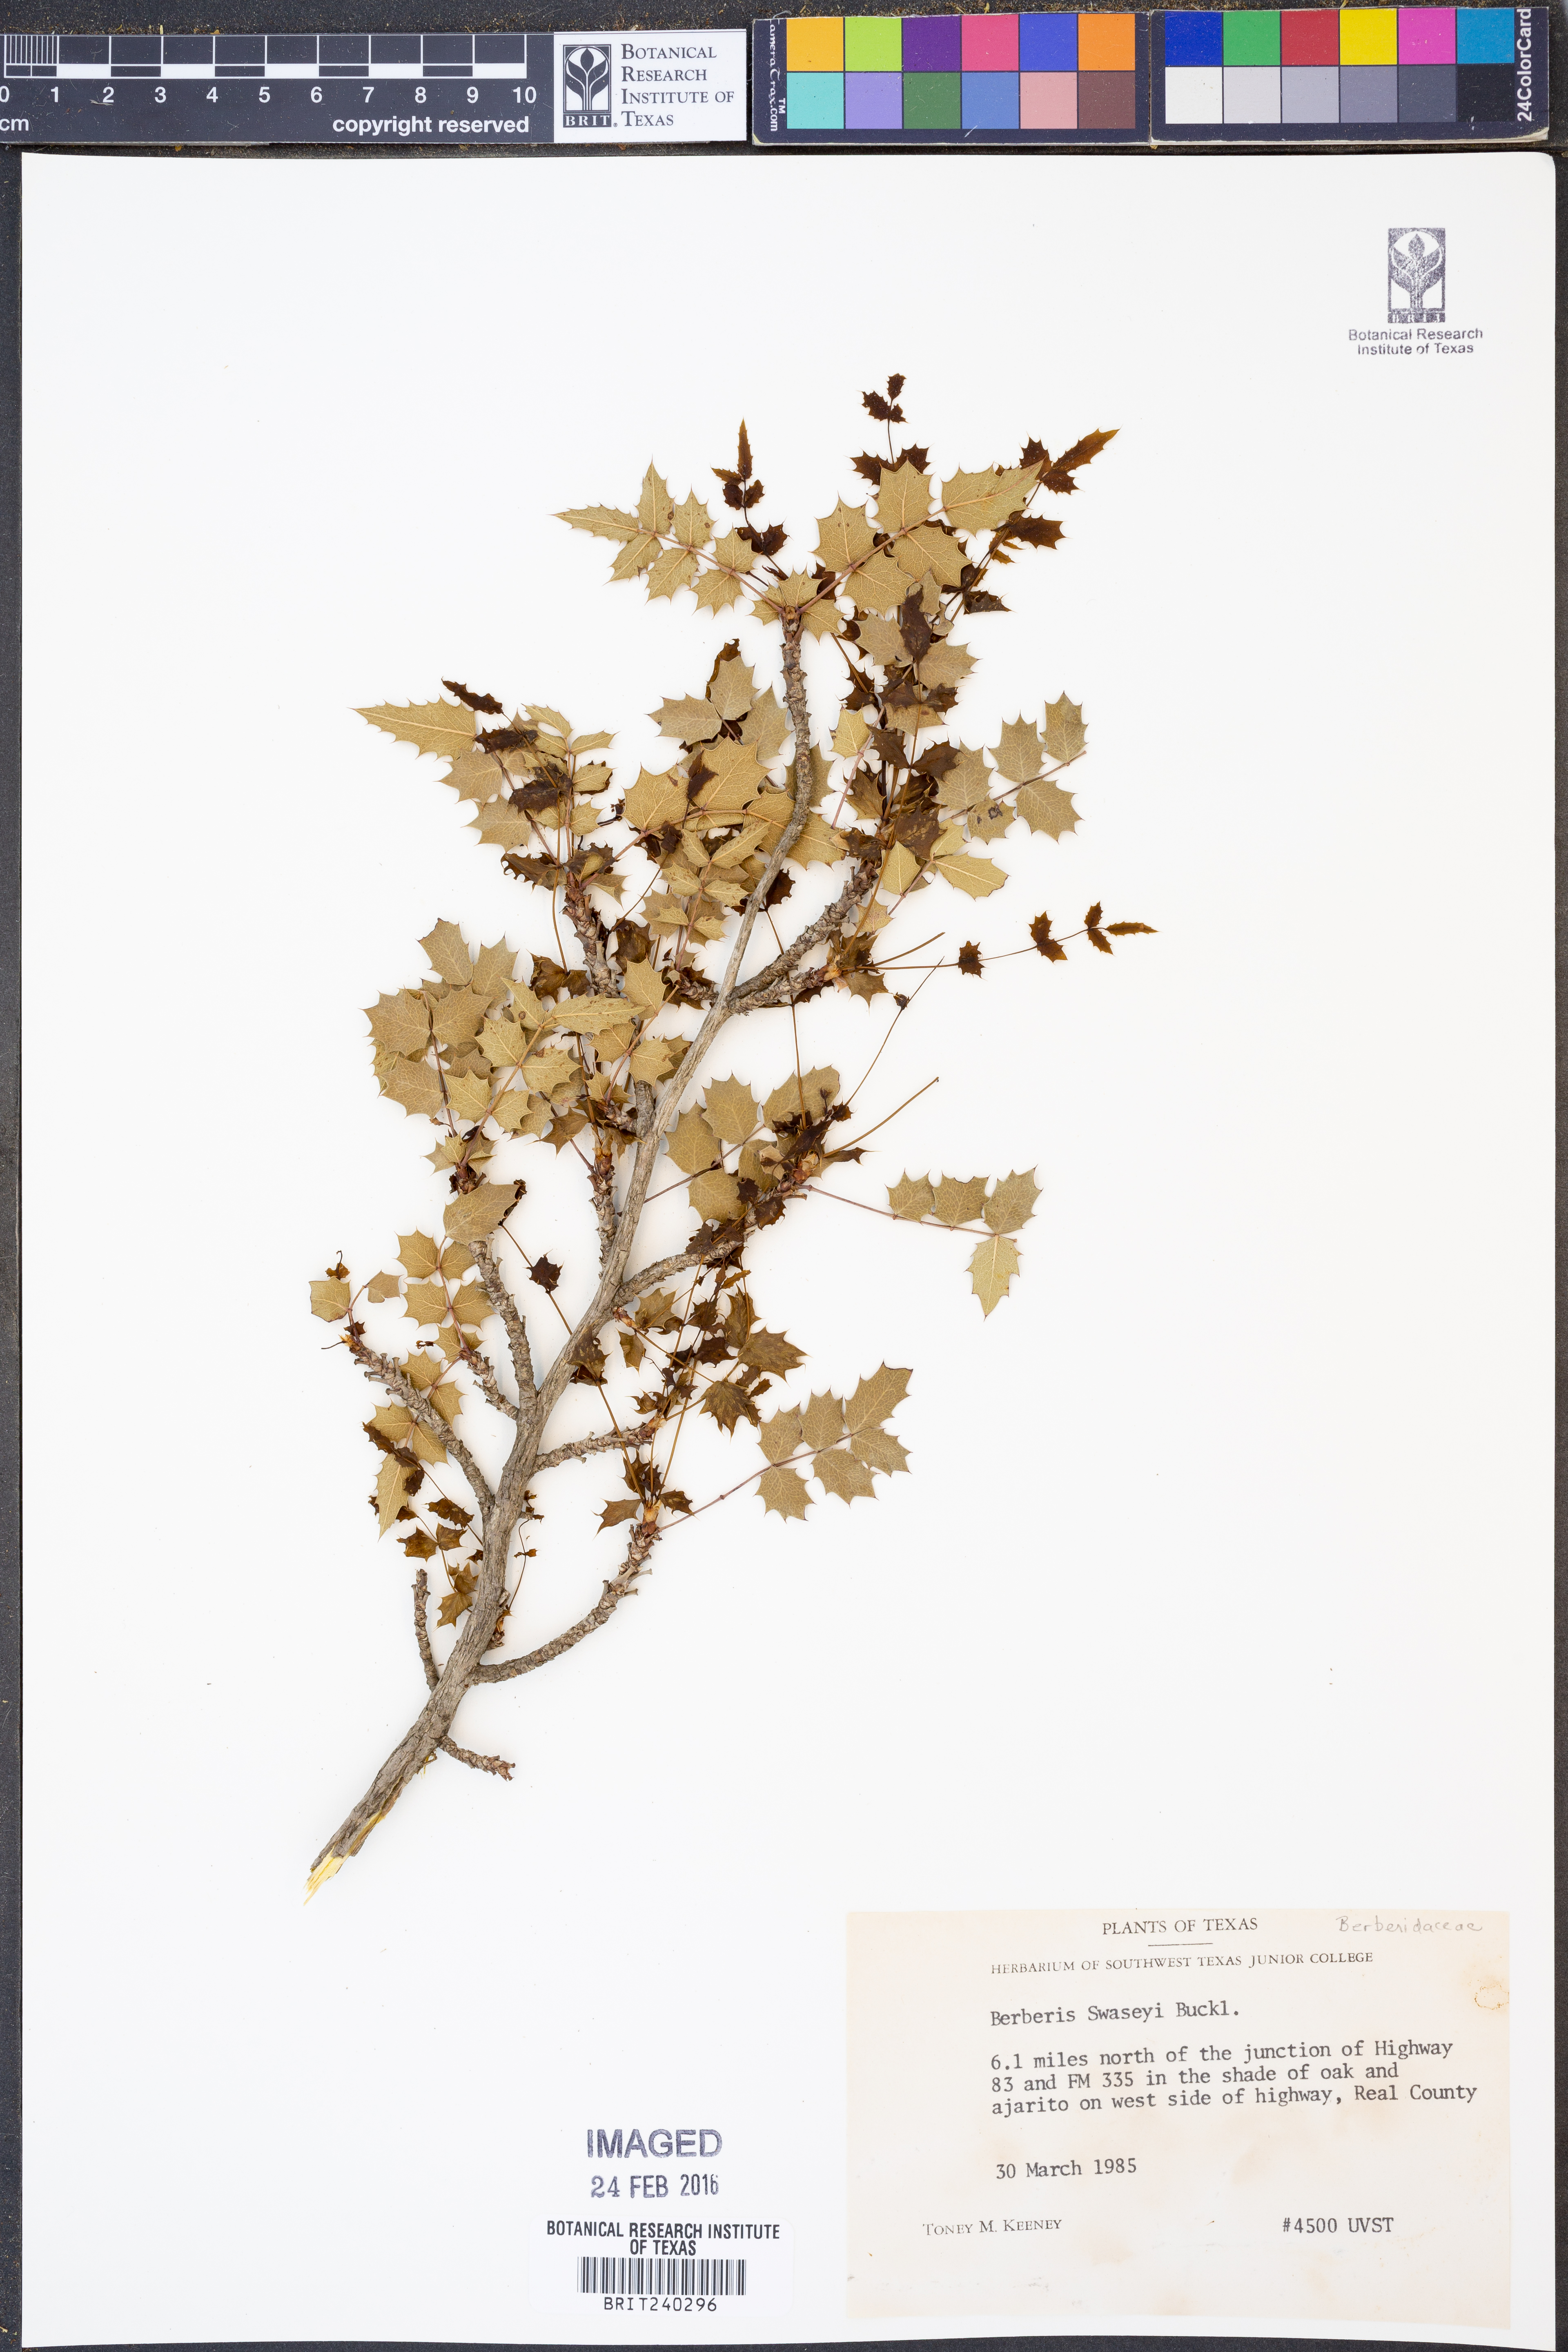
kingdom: Plantae
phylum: Tracheophyta
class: Magnoliopsida
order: Ranunculales
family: Berberidaceae
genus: Berberis
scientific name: Berberis swaseyi
